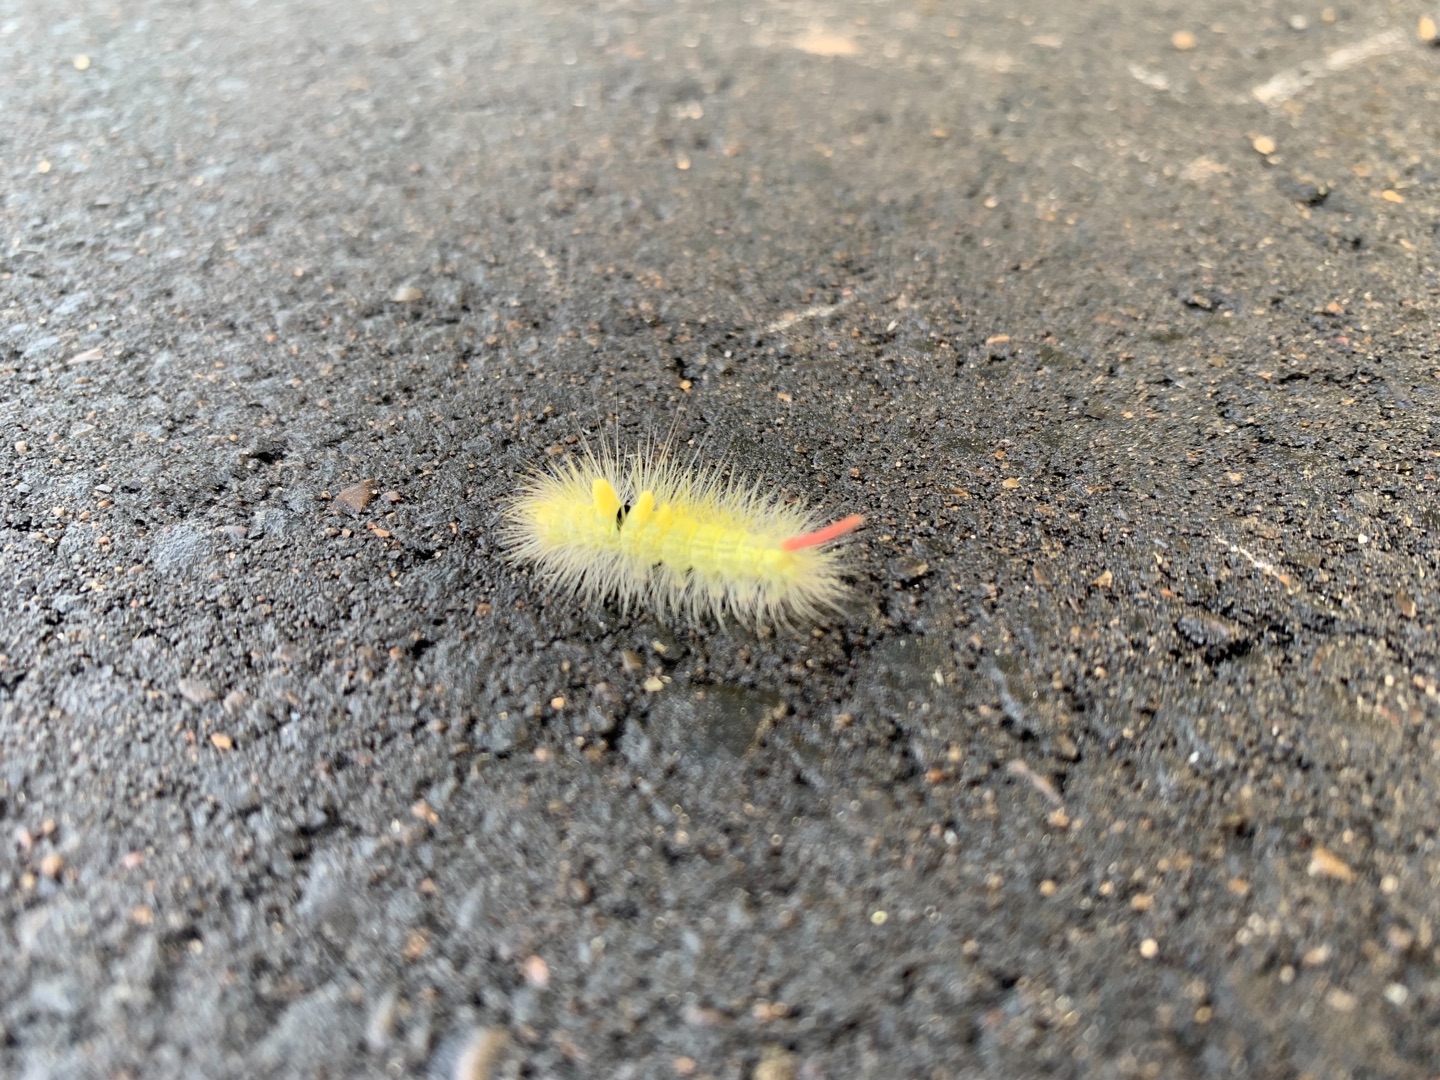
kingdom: Animalia
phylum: Arthropoda
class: Insecta
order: Lepidoptera
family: Erebidae
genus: Calliteara
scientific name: Calliteara pudibunda
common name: Bøgenonne
